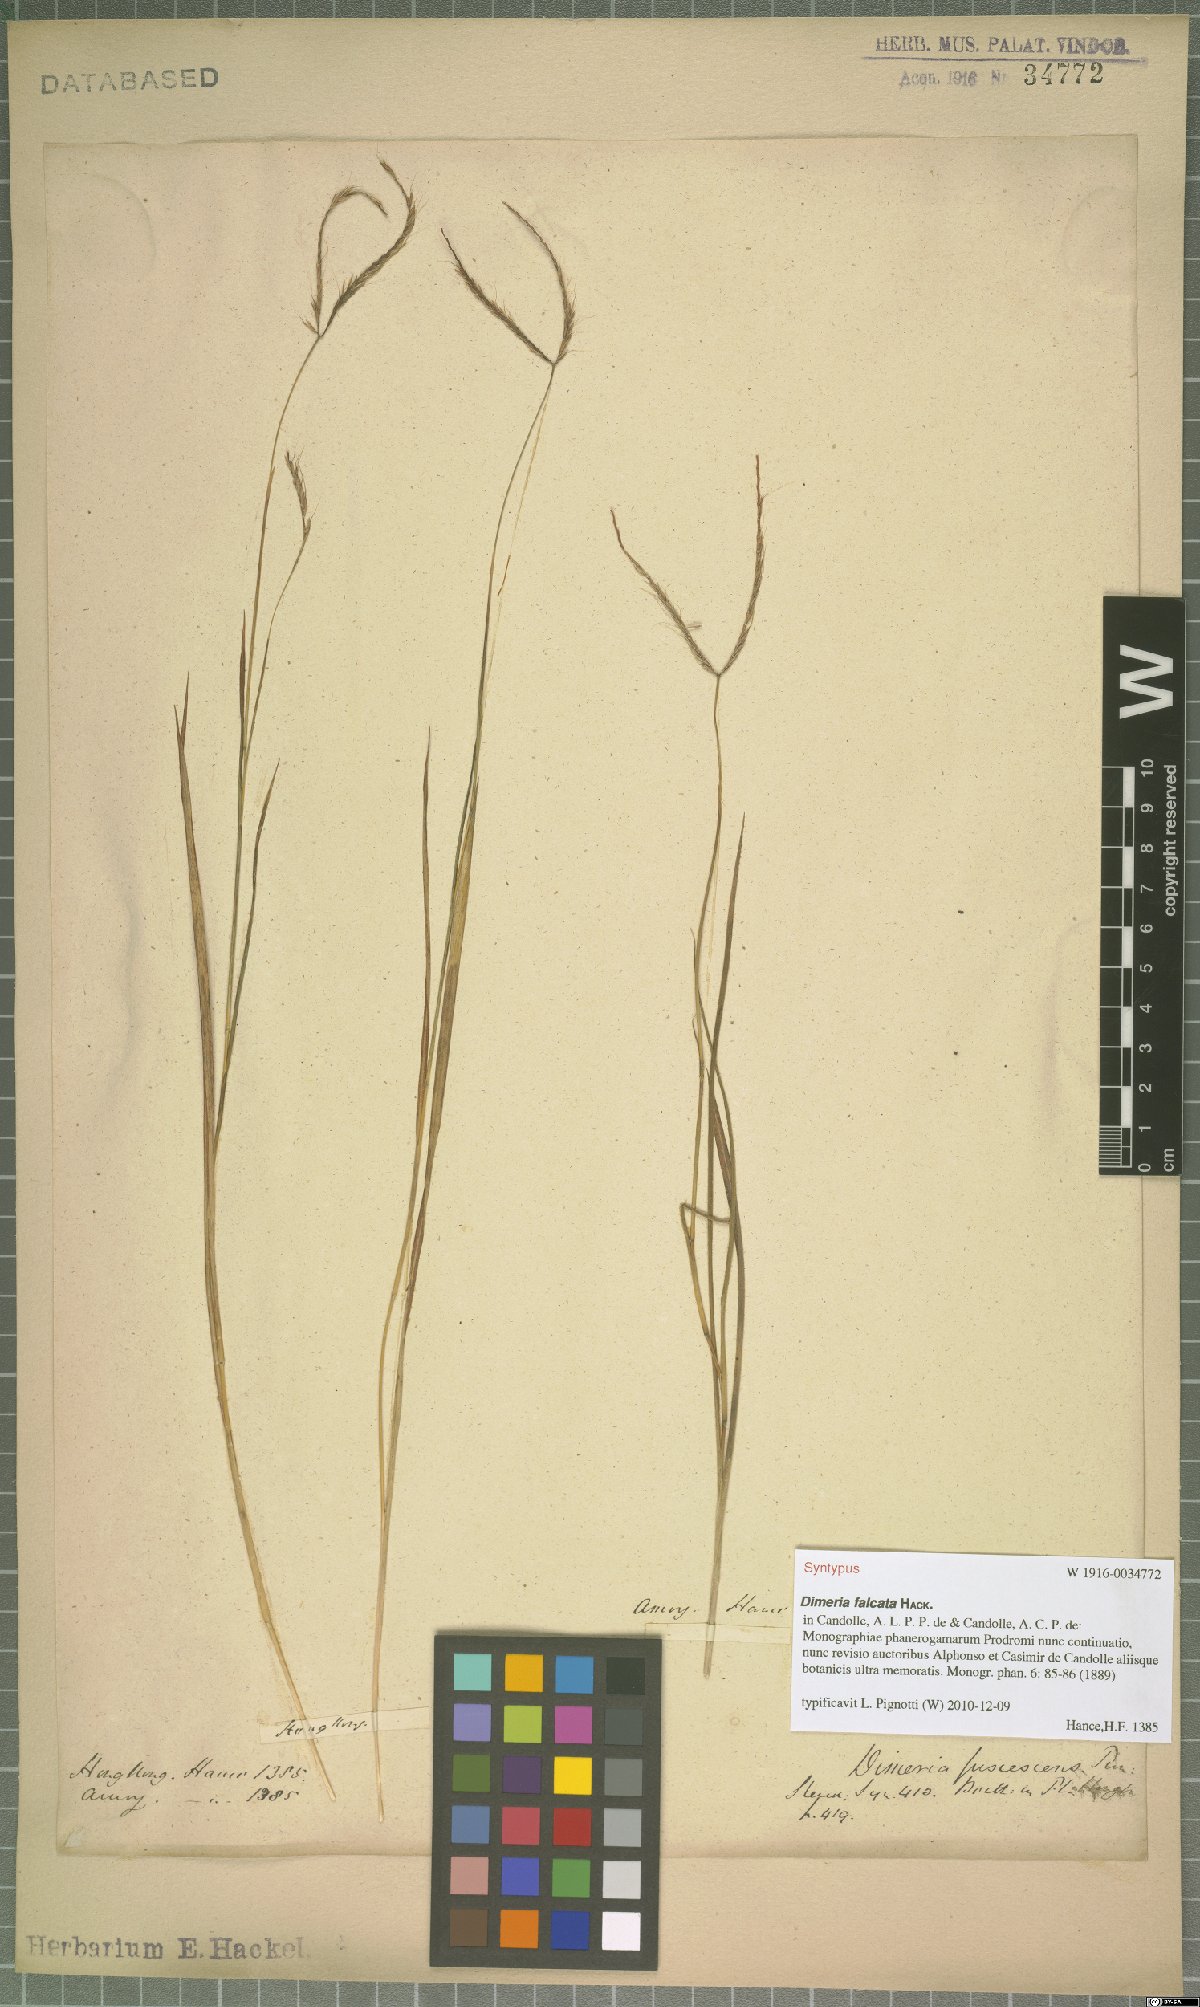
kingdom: Plantae
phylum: Tracheophyta
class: Liliopsida
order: Poales
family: Poaceae
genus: Dimeria
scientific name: Dimeria falcata
